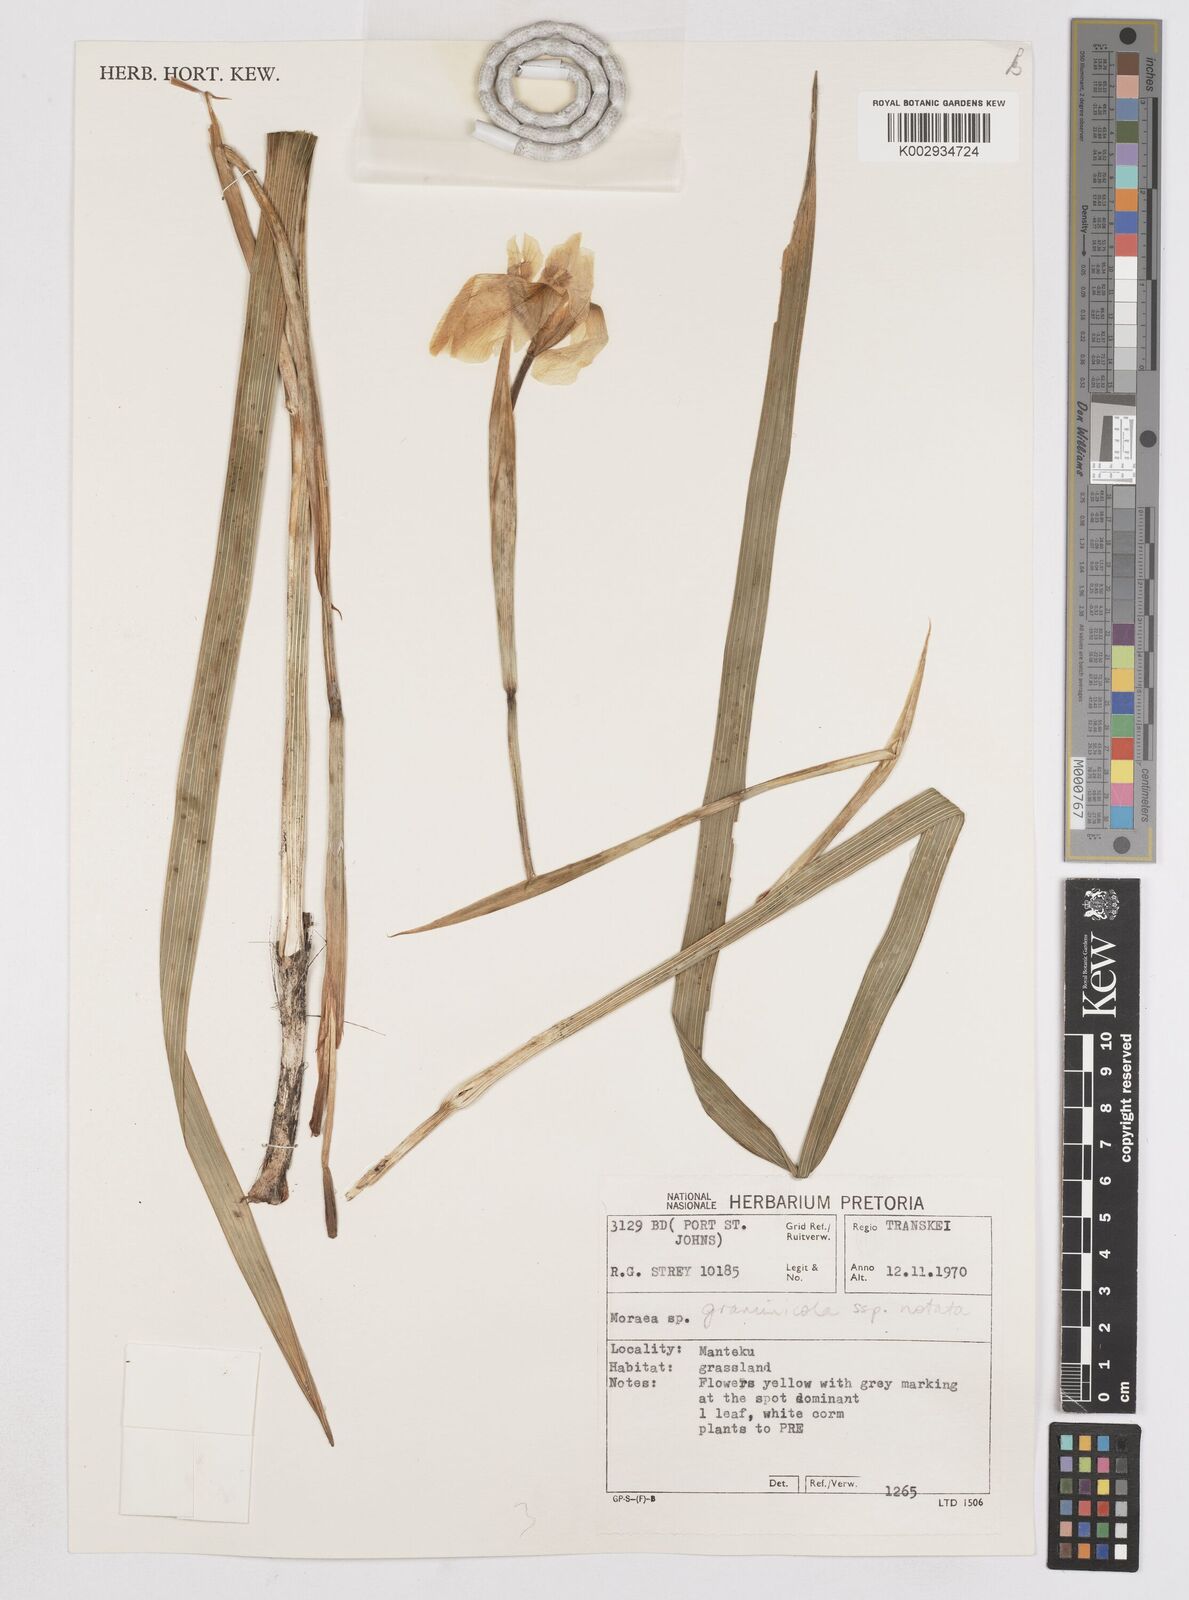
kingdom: Plantae
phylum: Tracheophyta
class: Liliopsida
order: Asparagales
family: Iridaceae
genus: Moraea
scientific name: Moraea graminicola
